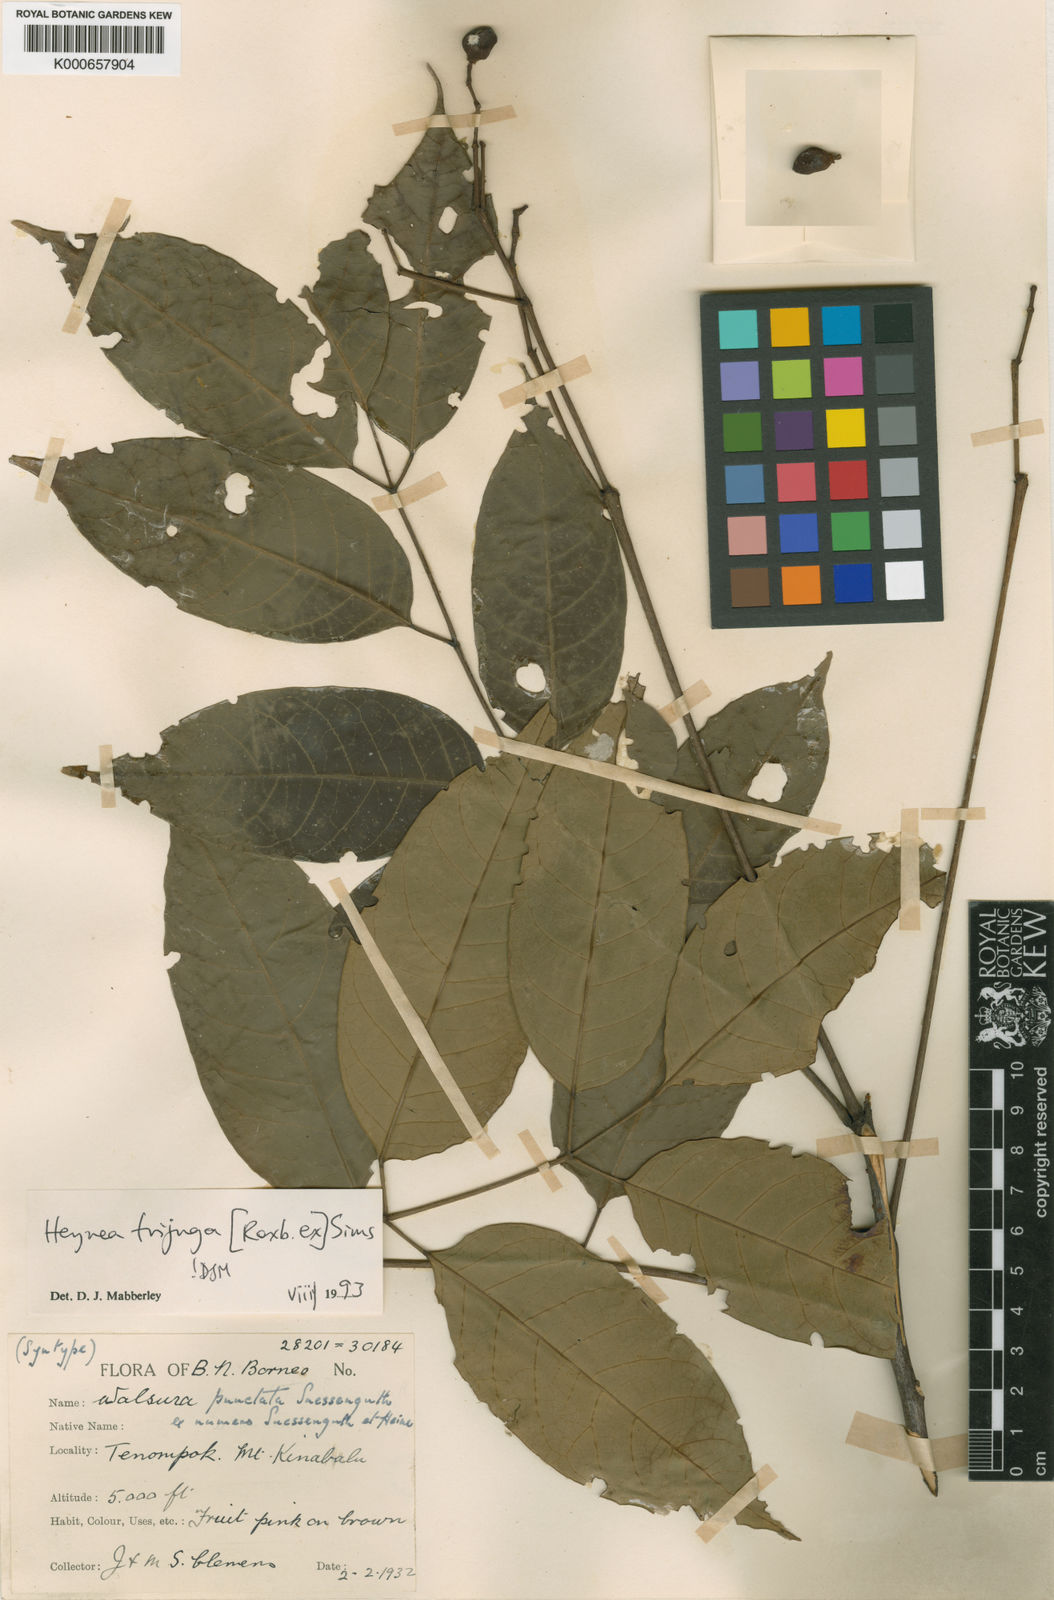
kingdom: Plantae
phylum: Tracheophyta
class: Magnoliopsida
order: Sapindales
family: Meliaceae
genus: Heynea
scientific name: Heynea trijuga
